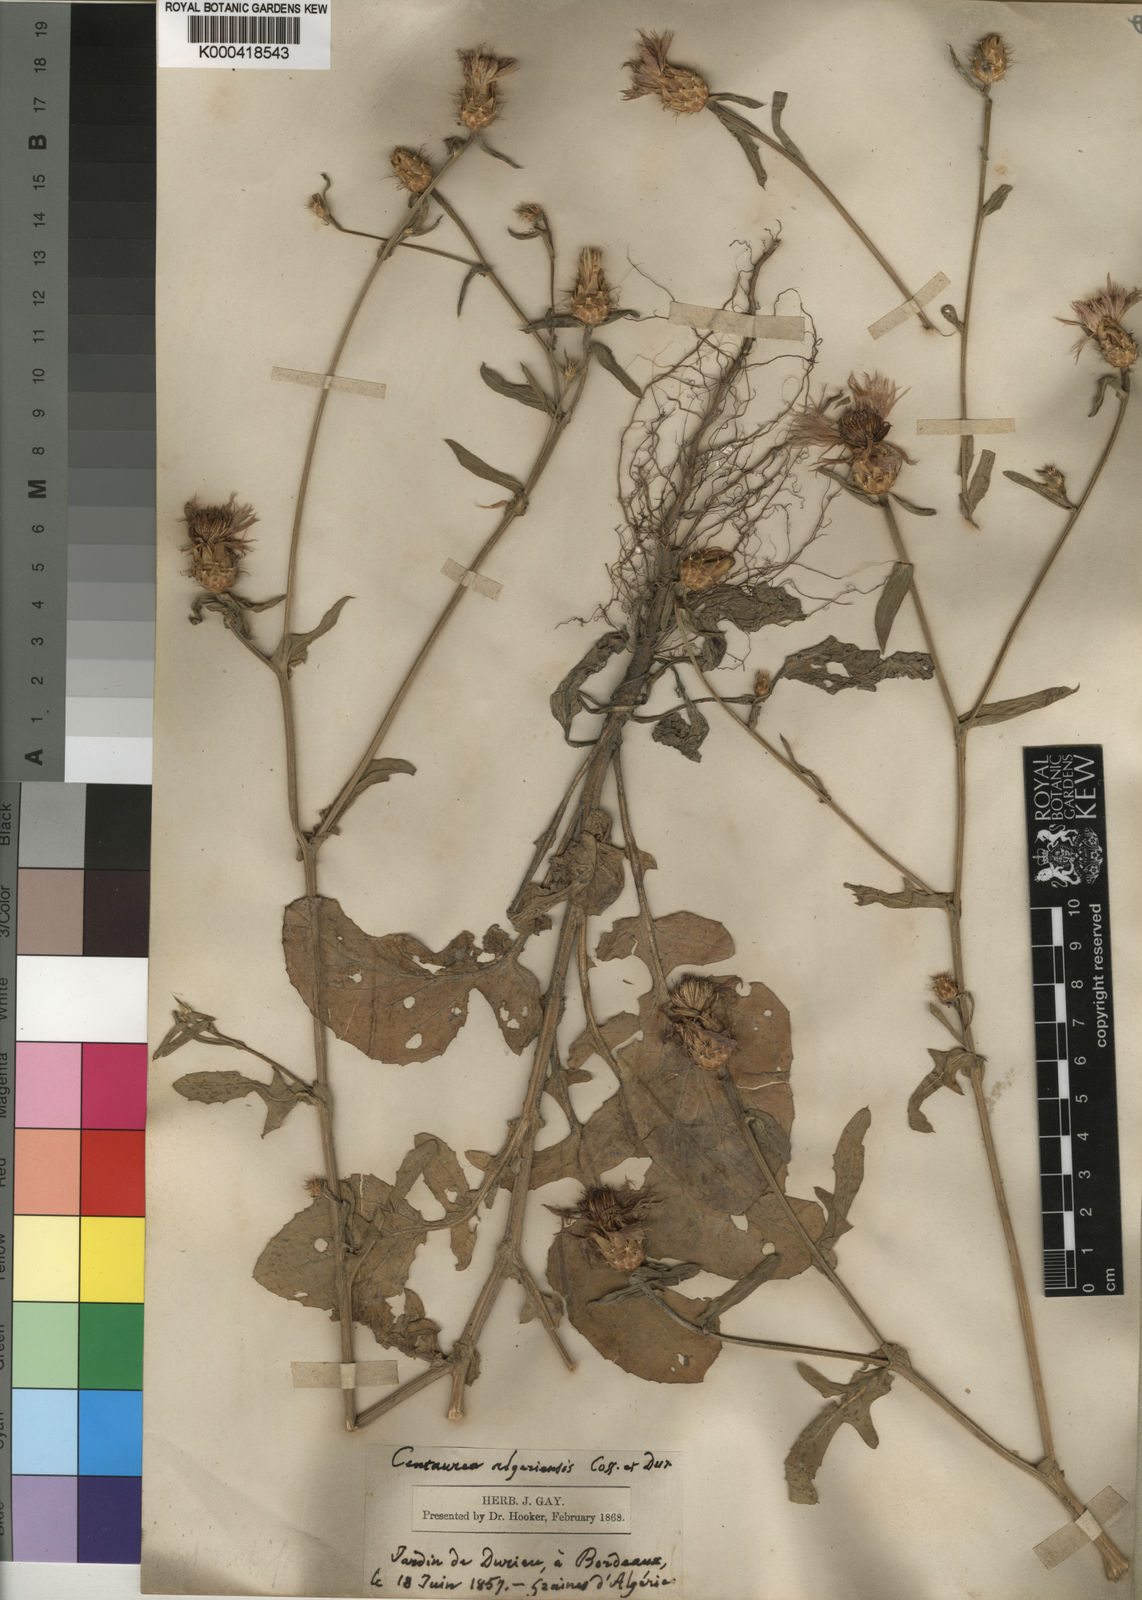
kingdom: Plantae
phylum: Tracheophyta
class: Magnoliopsida
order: Asterales
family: Asteraceae
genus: Centaurea
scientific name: Centaurea diluta
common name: Lesser star-thistle
